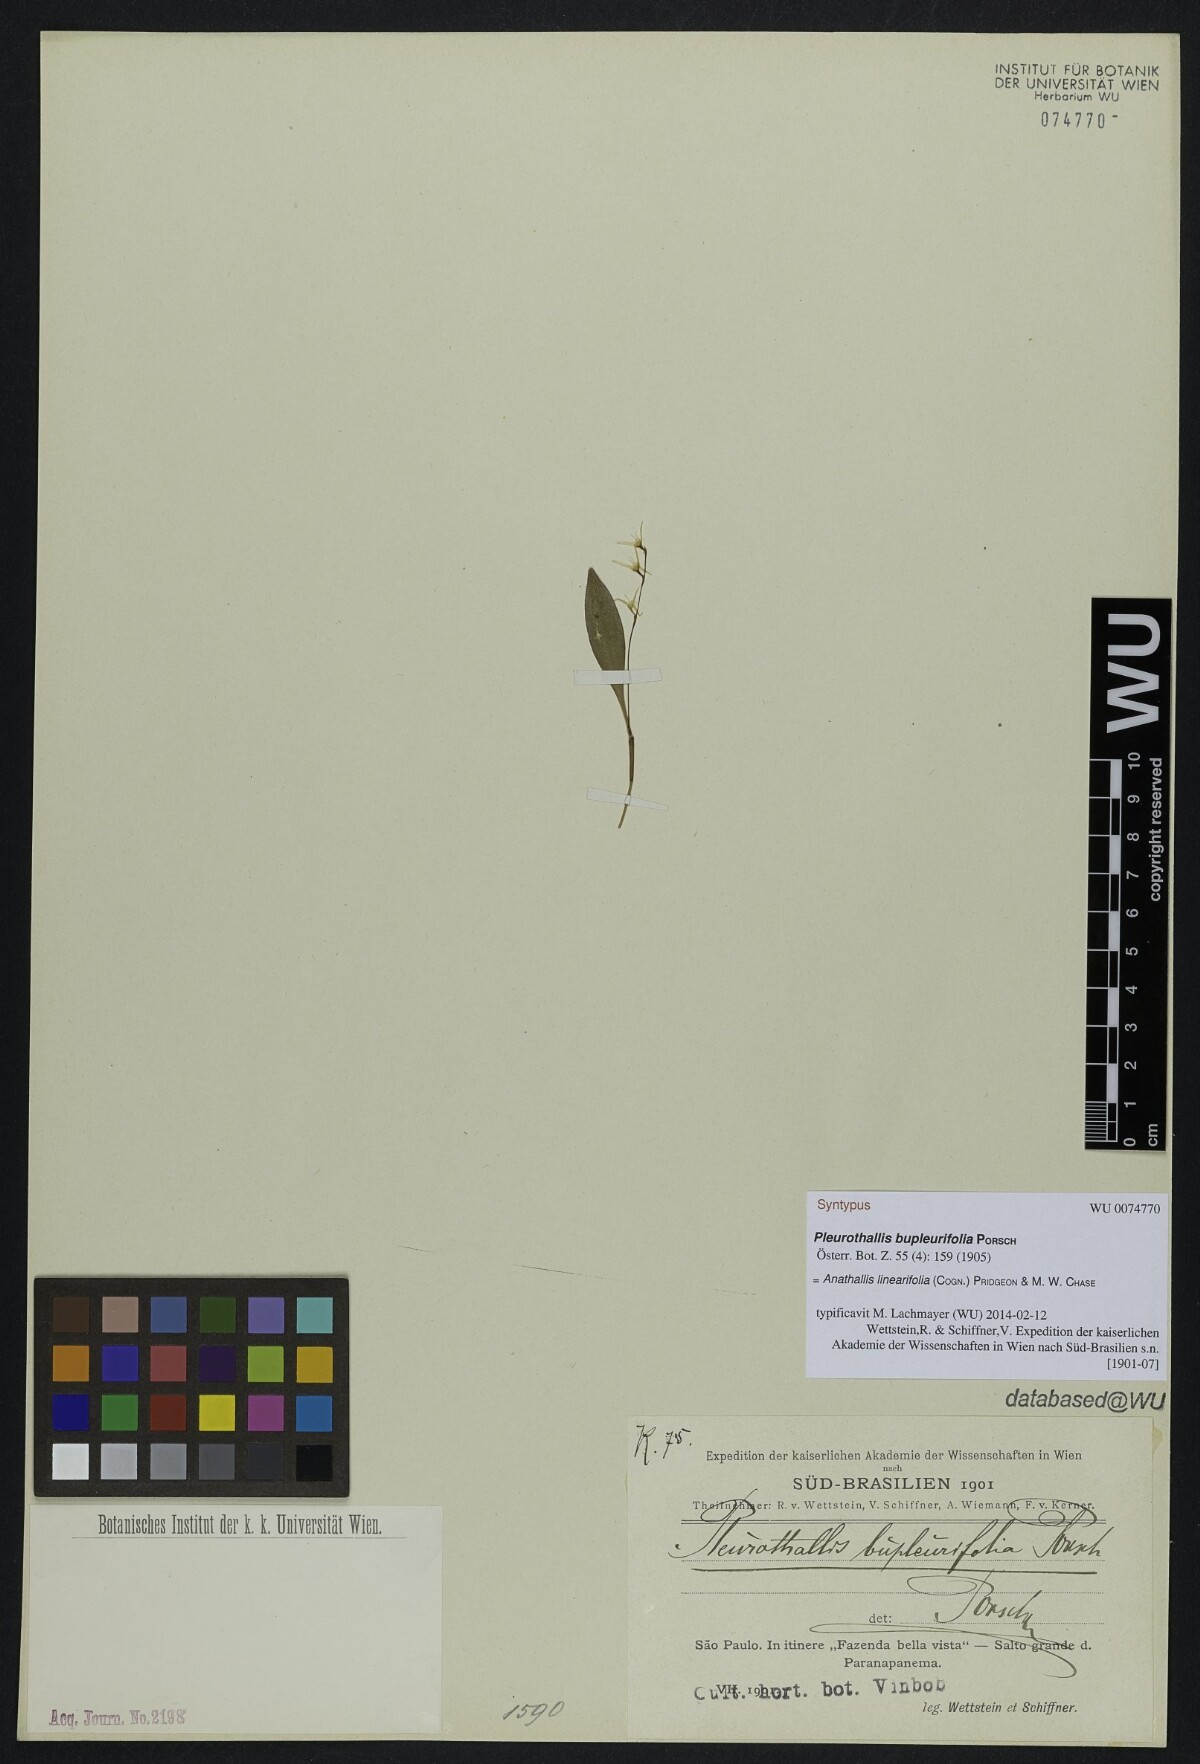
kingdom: Plantae
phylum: Tracheophyta
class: Liliopsida
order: Asparagales
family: Orchidaceae
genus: Anathallis
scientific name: Anathallis linearifolia
